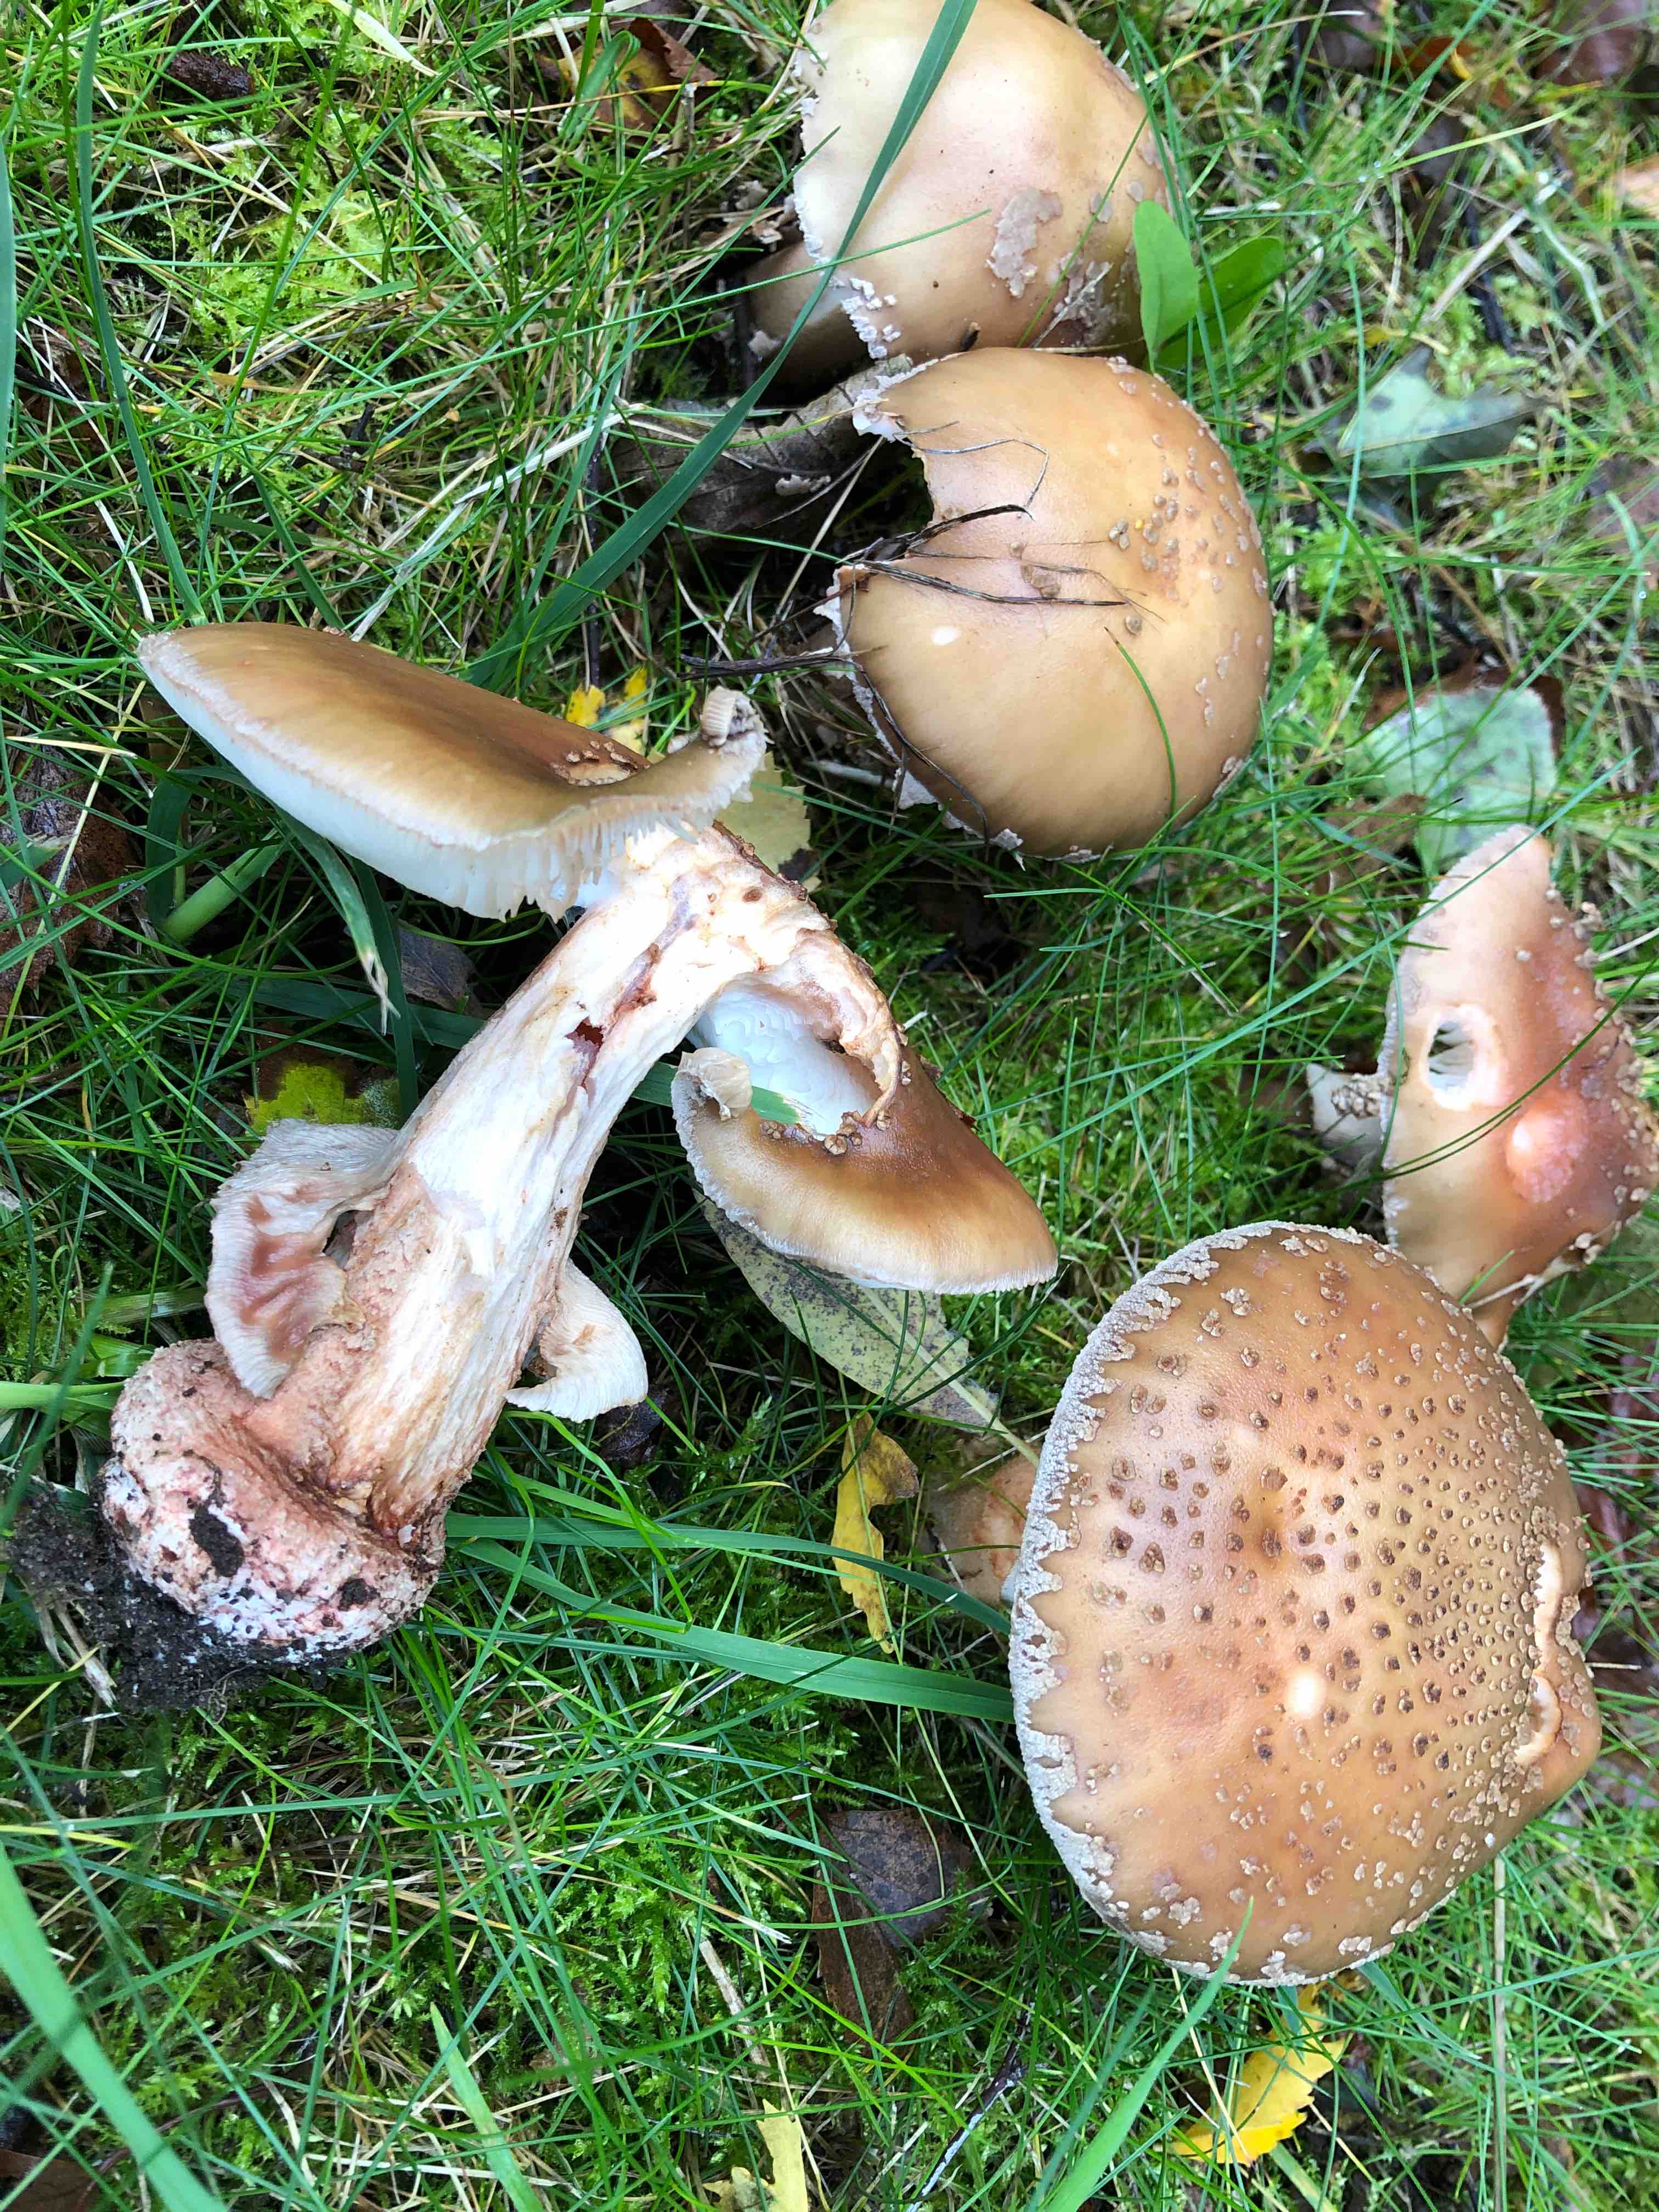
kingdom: Fungi
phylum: Basidiomycota
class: Agaricomycetes
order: Agaricales
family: Amanitaceae
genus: Amanita
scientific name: Amanita rubescens
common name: rødmende fluesvamp
